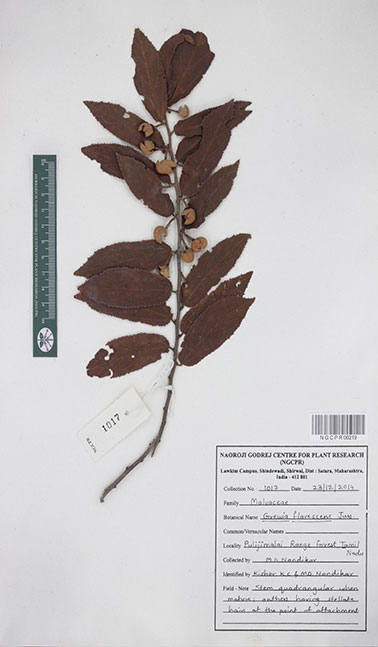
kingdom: Plantae
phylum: Tracheophyta
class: Magnoliopsida
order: Malvales
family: Malvaceae
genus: Grewia
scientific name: Grewia flavescens
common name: Sandpaper raisin
